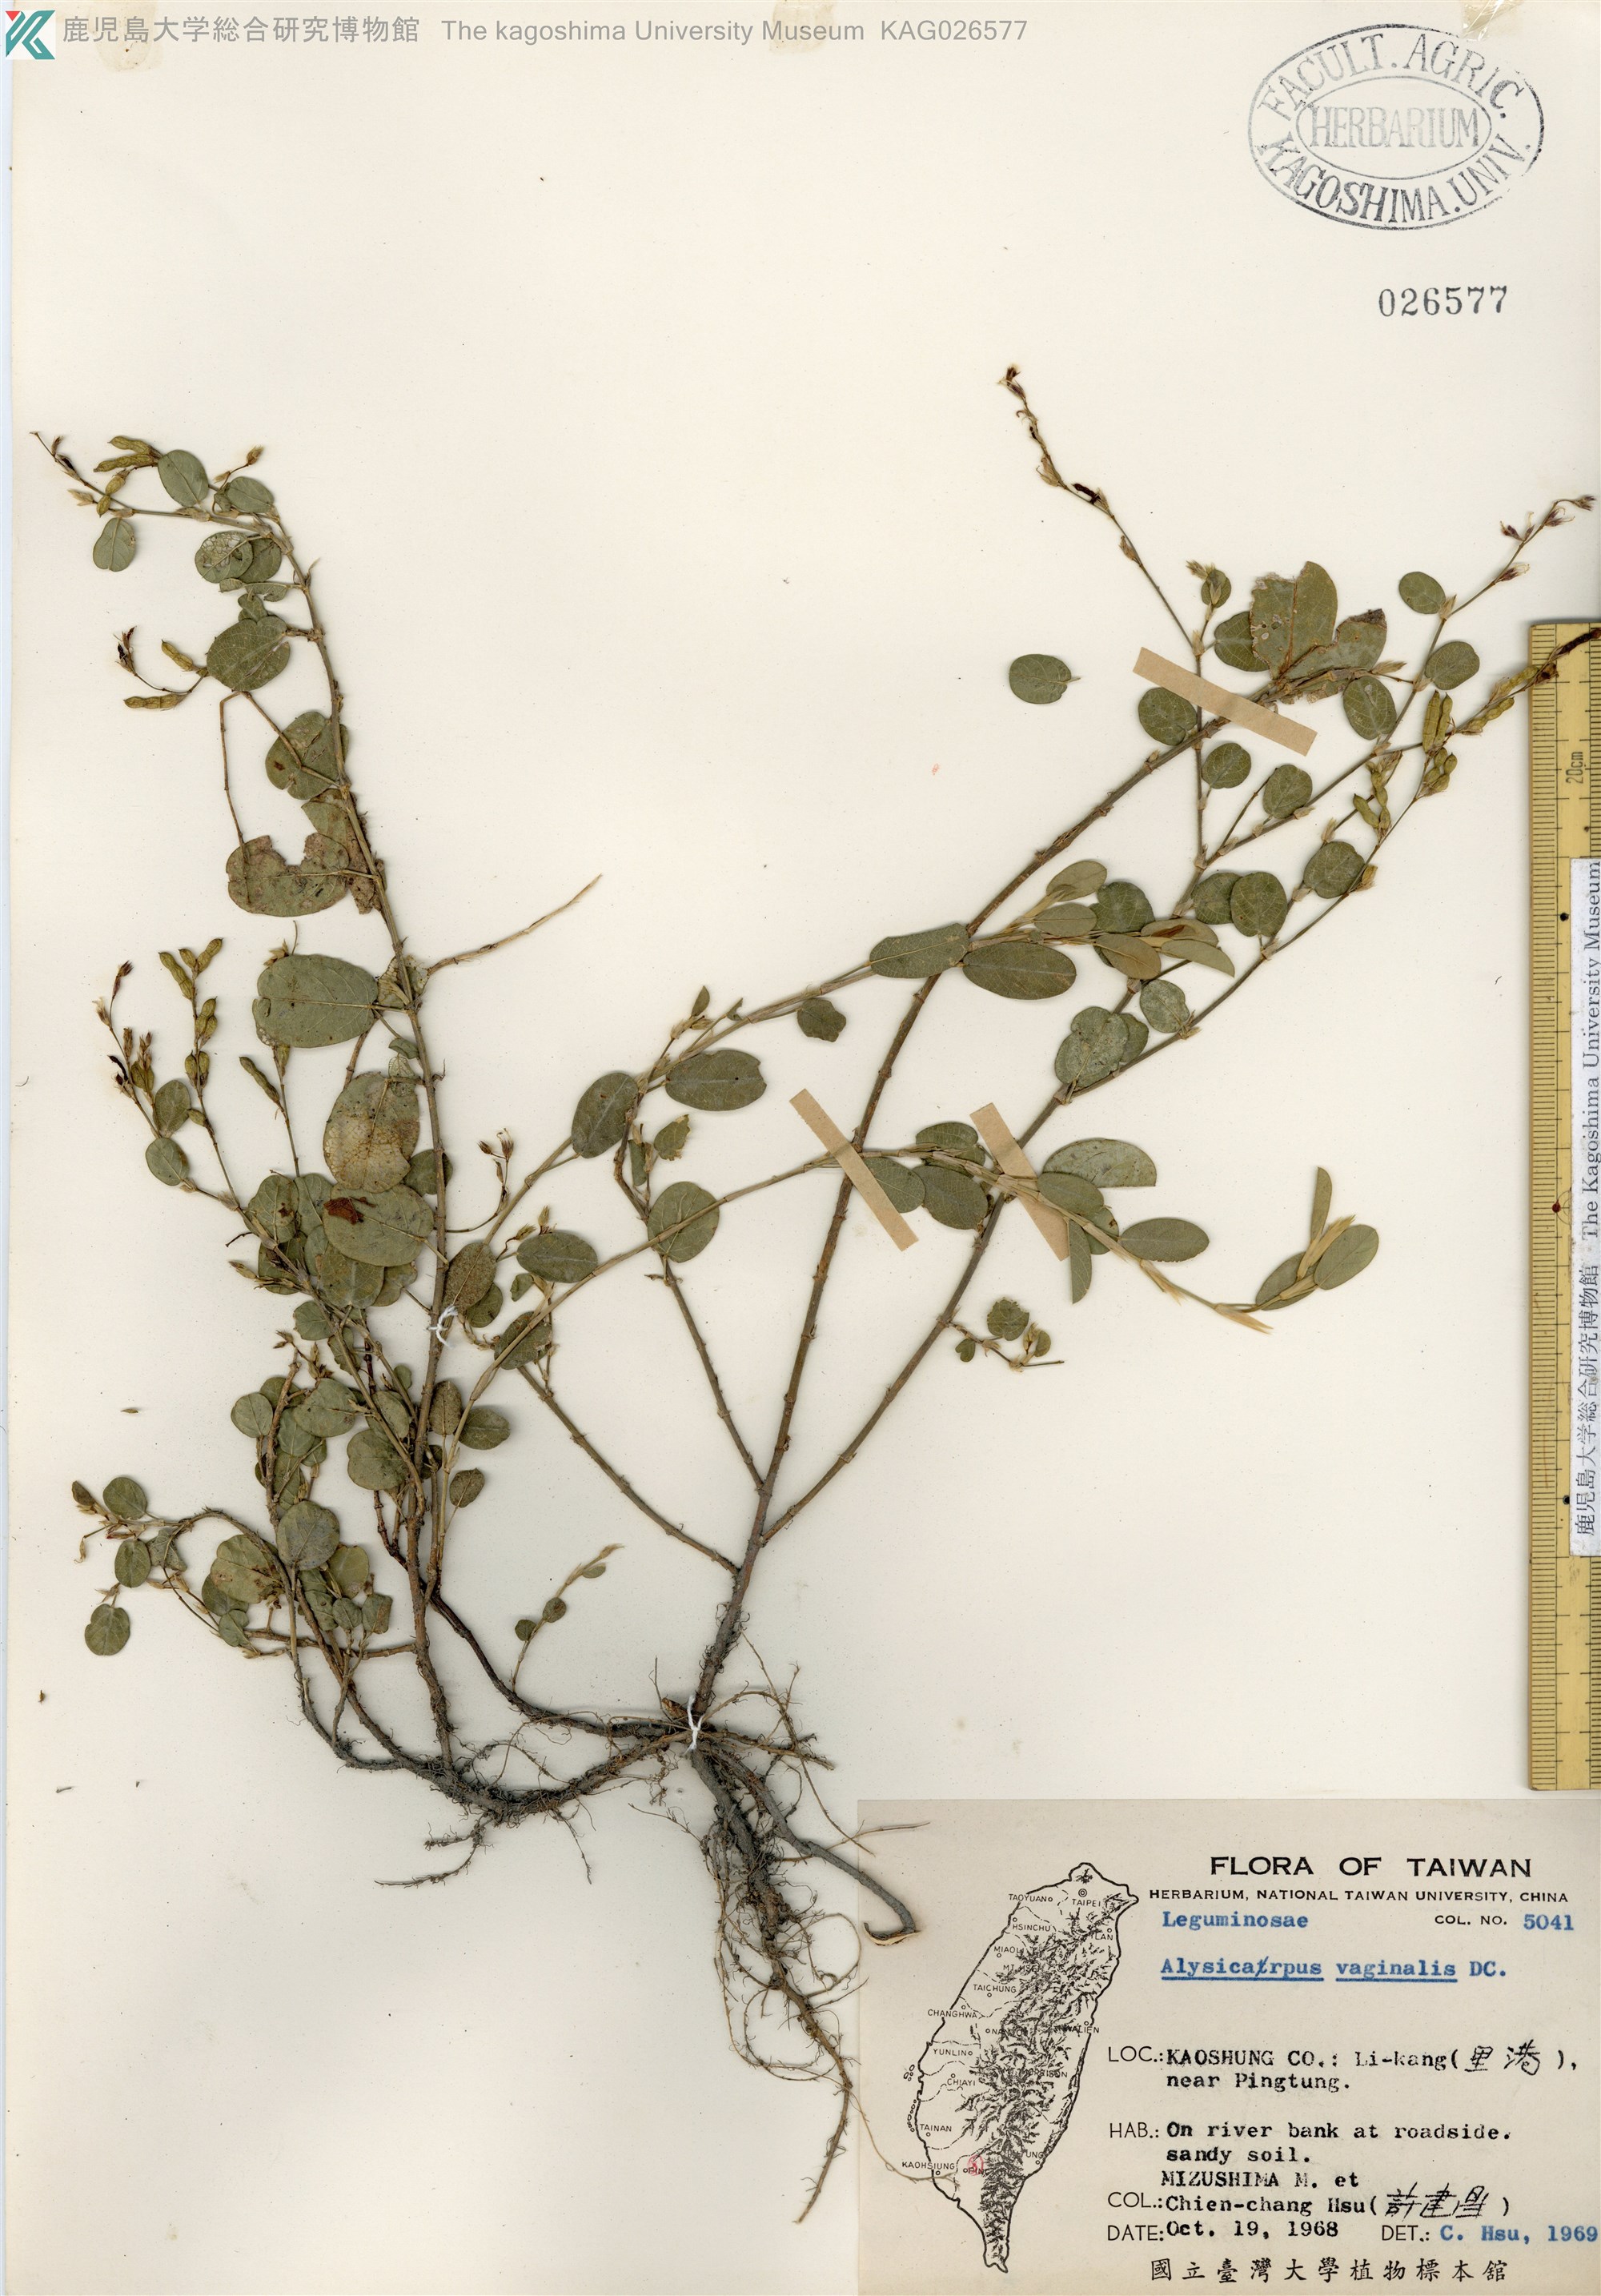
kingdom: Plantae
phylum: Tracheophyta
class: Magnoliopsida
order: Fabales
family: Fabaceae
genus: Alysicarpus
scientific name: Alysicarpus vaginalis
